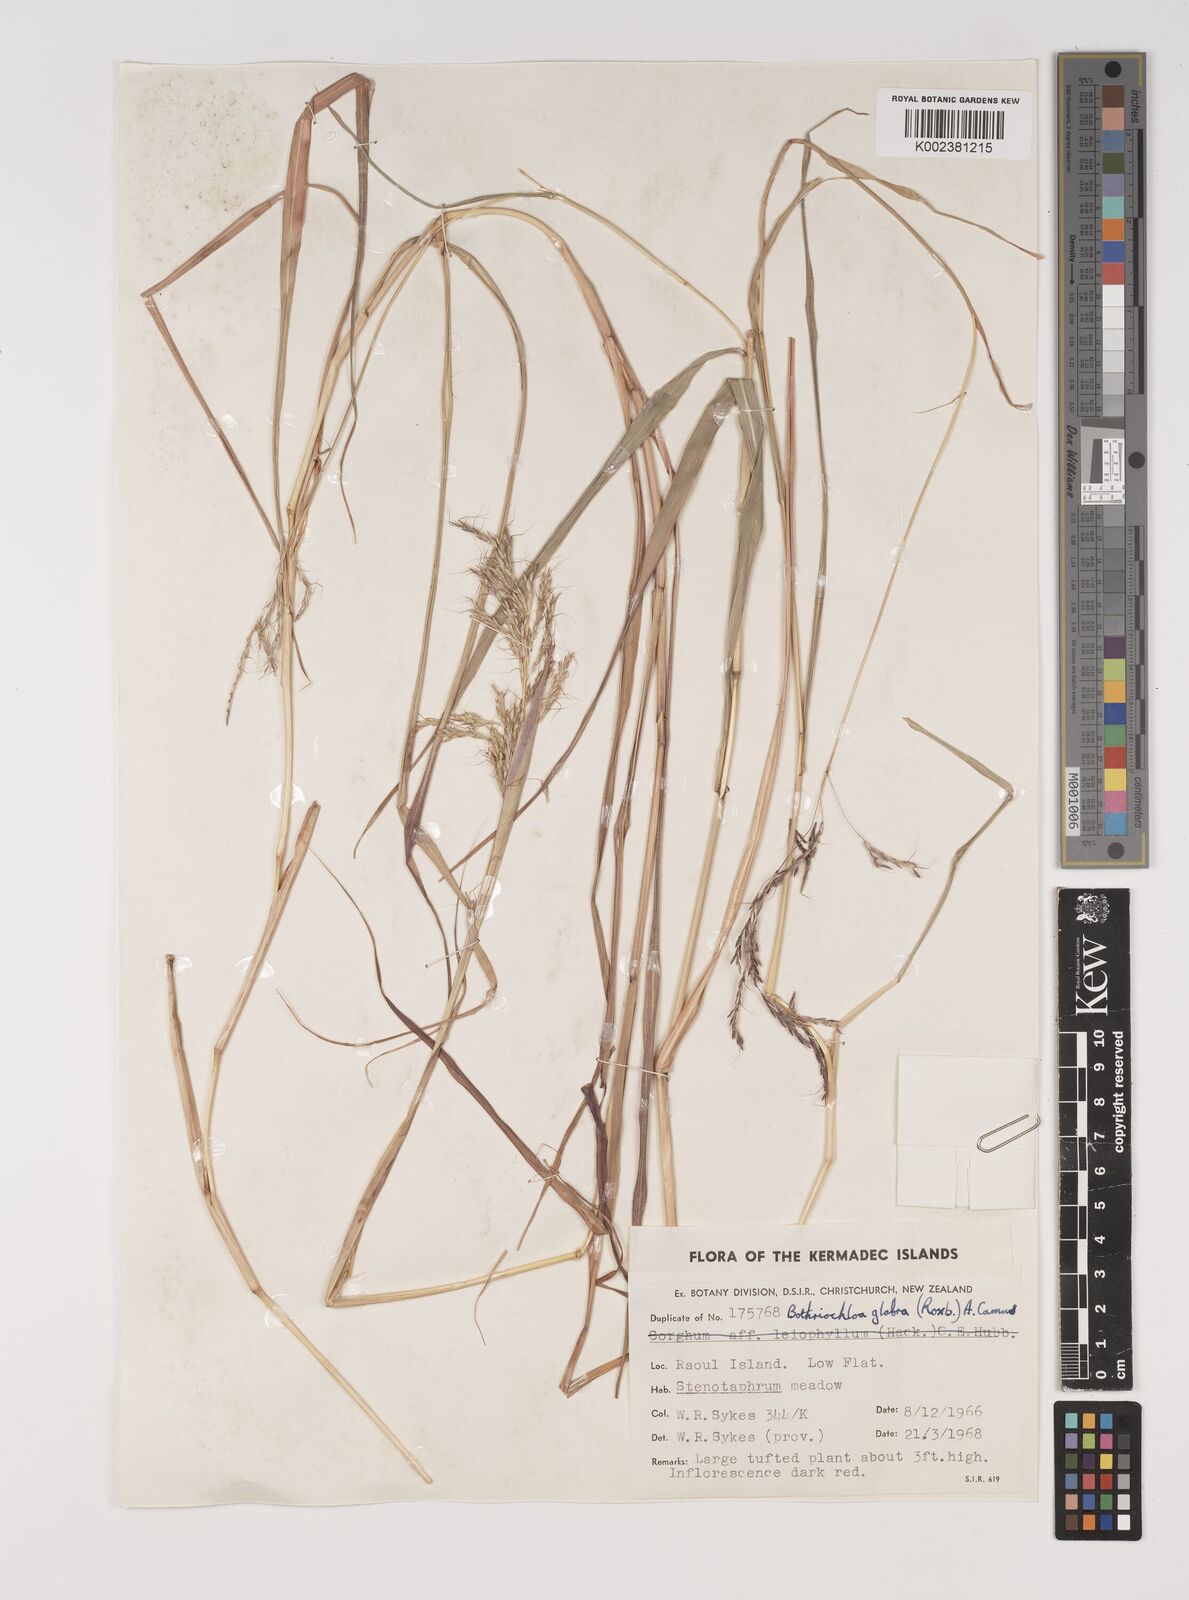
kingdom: Plantae
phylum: Tracheophyta
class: Liliopsida
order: Poales
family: Poaceae
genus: Bothriochloa
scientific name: Bothriochloa bladhii
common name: Caucasian bluestem
